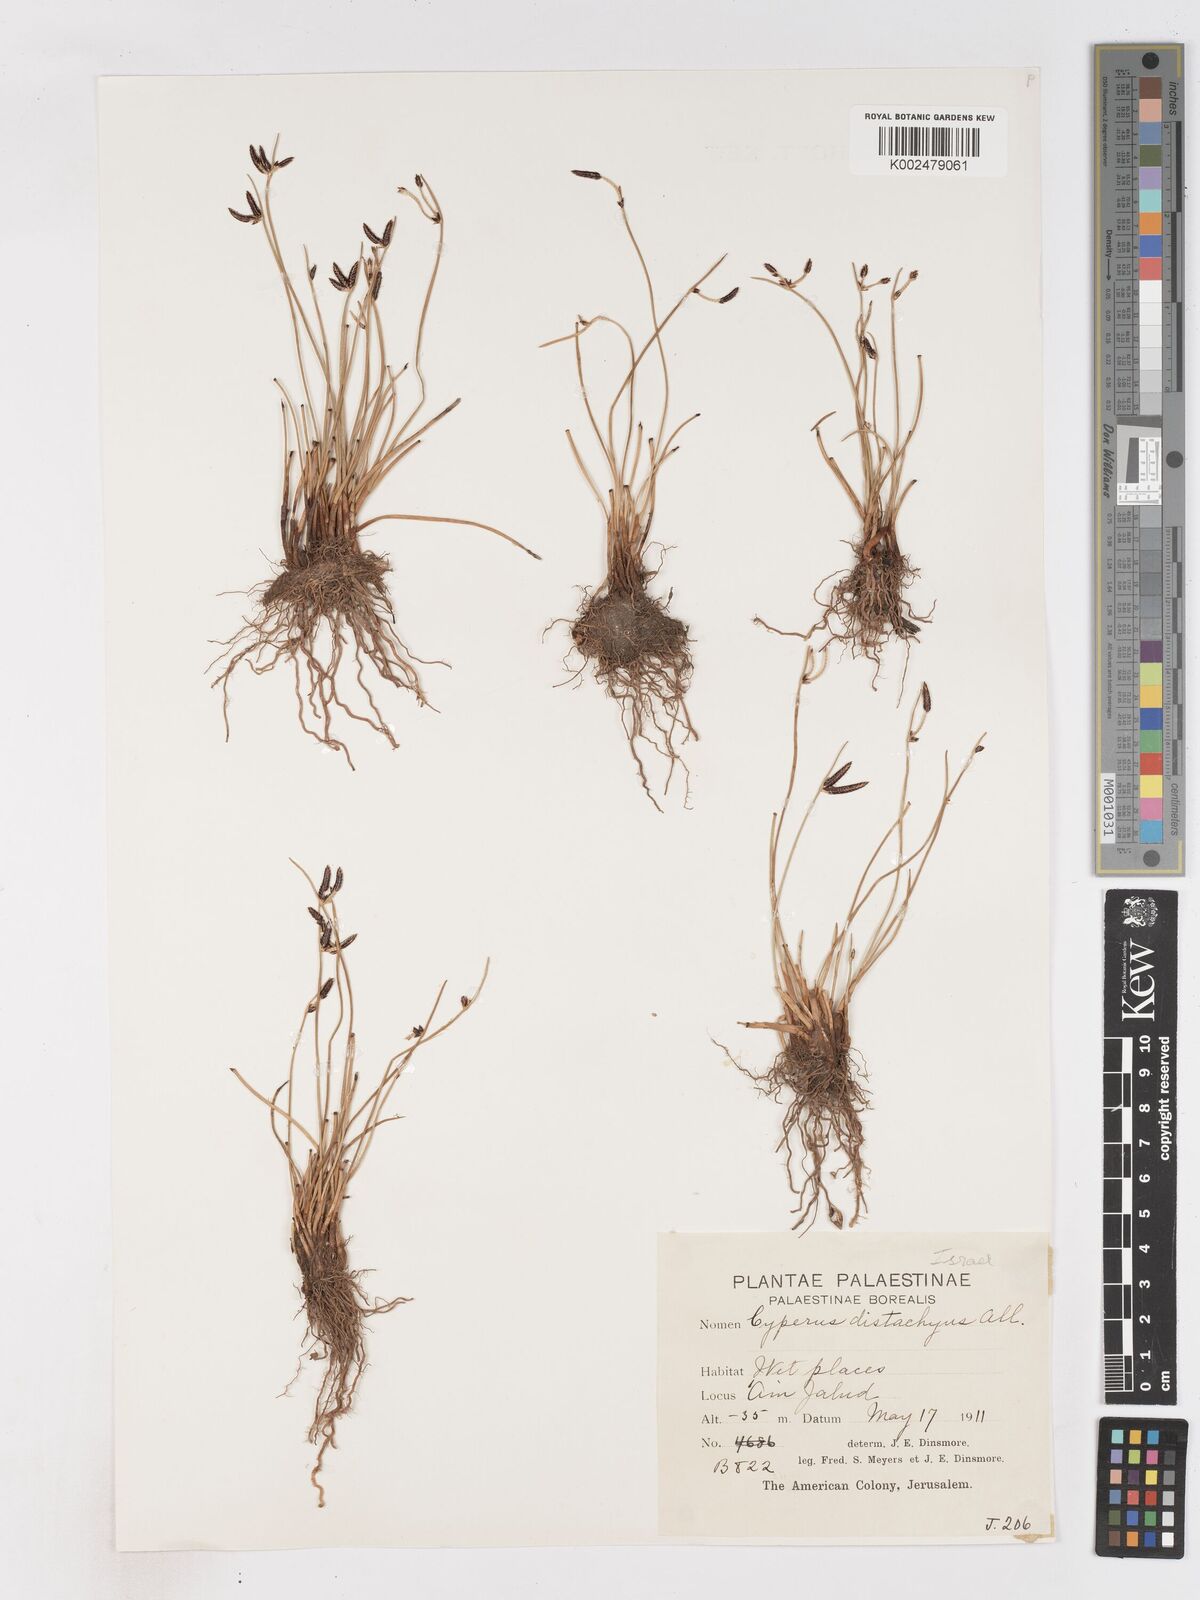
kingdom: Plantae
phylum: Tracheophyta
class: Liliopsida
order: Poales
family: Cyperaceae
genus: Cyperus
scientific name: Cyperus laevigatus
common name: Smooth flat sedge
